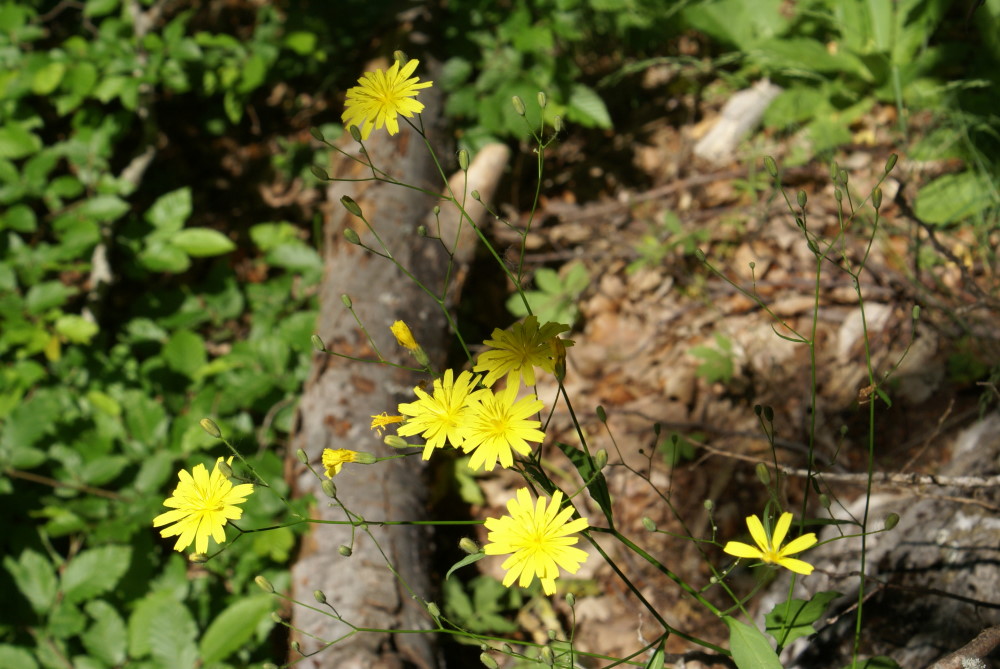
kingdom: Plantae
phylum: Tracheophyta
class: Magnoliopsida
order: Asterales
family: Asteraceae
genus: Lapsana
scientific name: Lapsana communis
